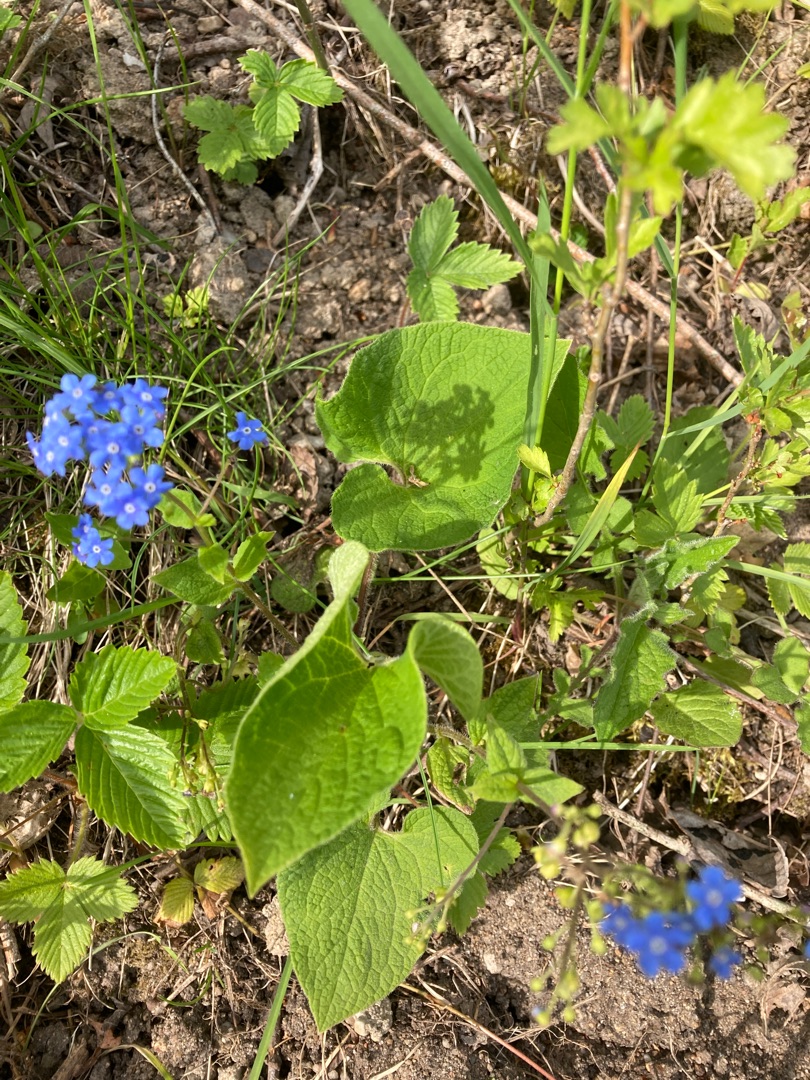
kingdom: Plantae
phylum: Tracheophyta
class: Magnoliopsida
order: Boraginales
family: Boraginaceae
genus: Brunnera
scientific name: Brunnera macrophylla
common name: Kærmindesøster
